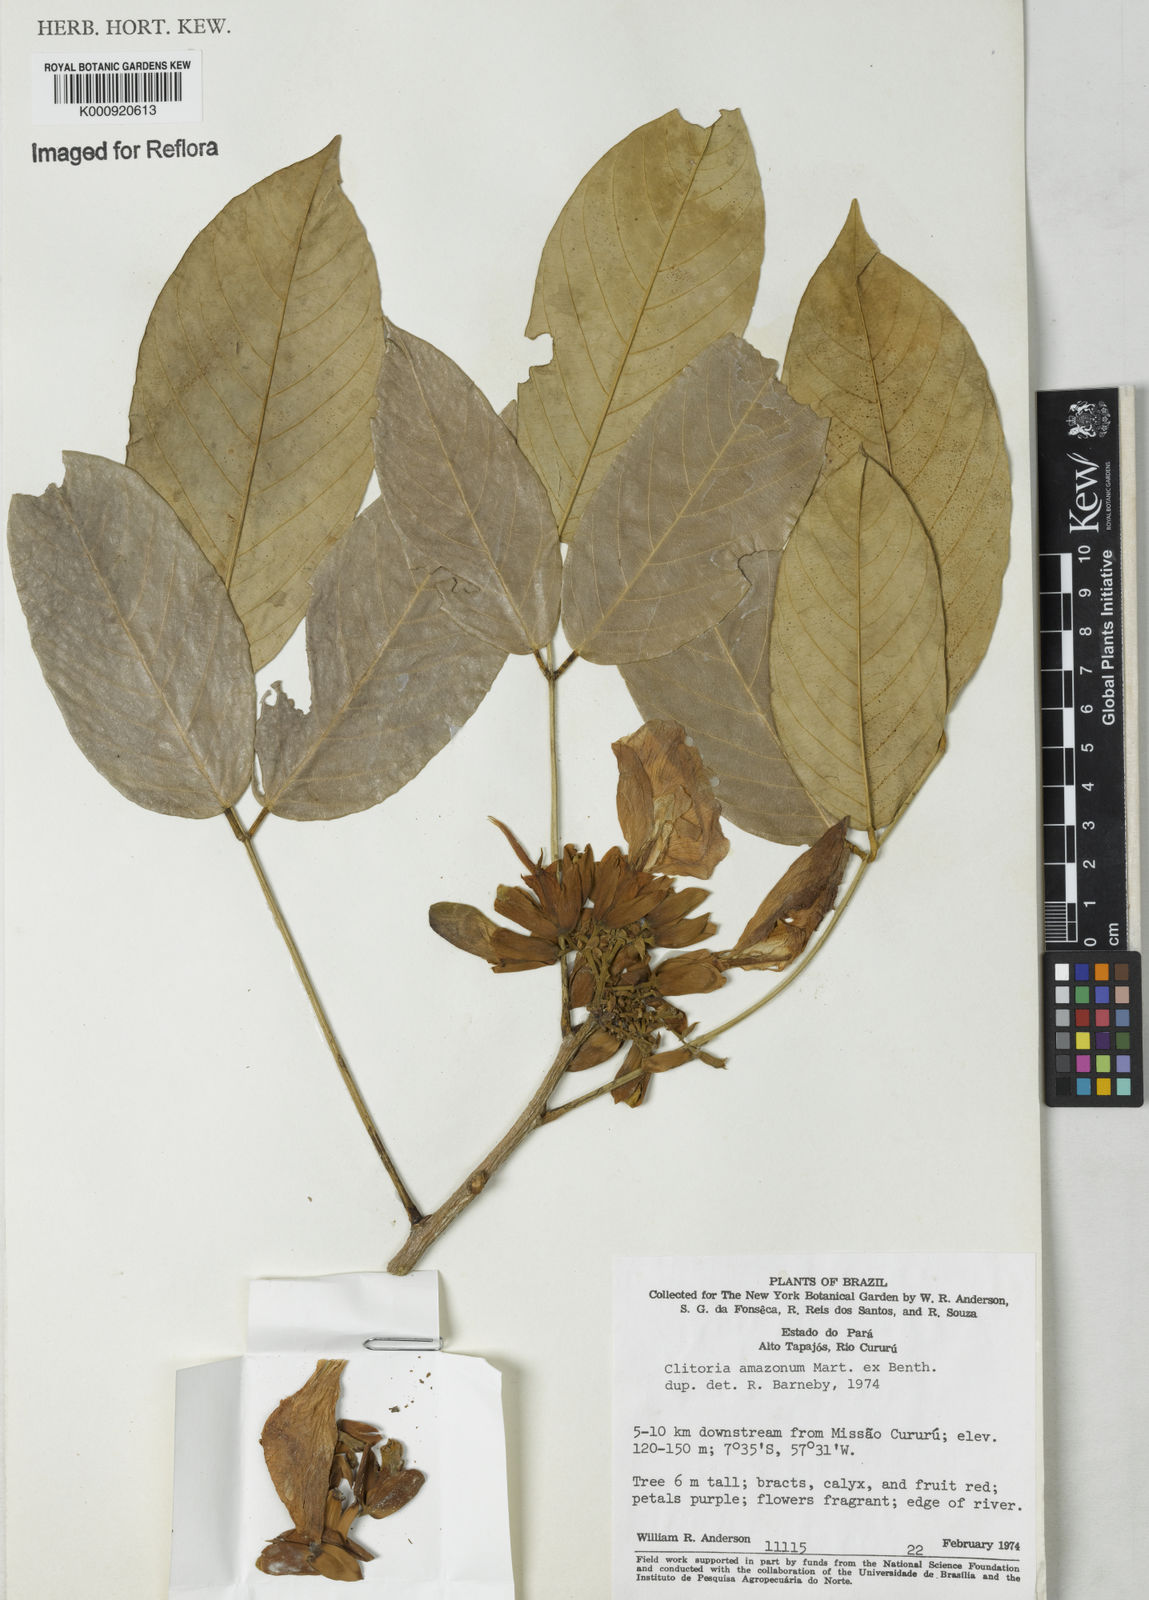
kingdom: Plantae
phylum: Tracheophyta
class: Magnoliopsida
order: Fabales
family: Fabaceae
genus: Clitoria
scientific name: Clitoria amazonum
